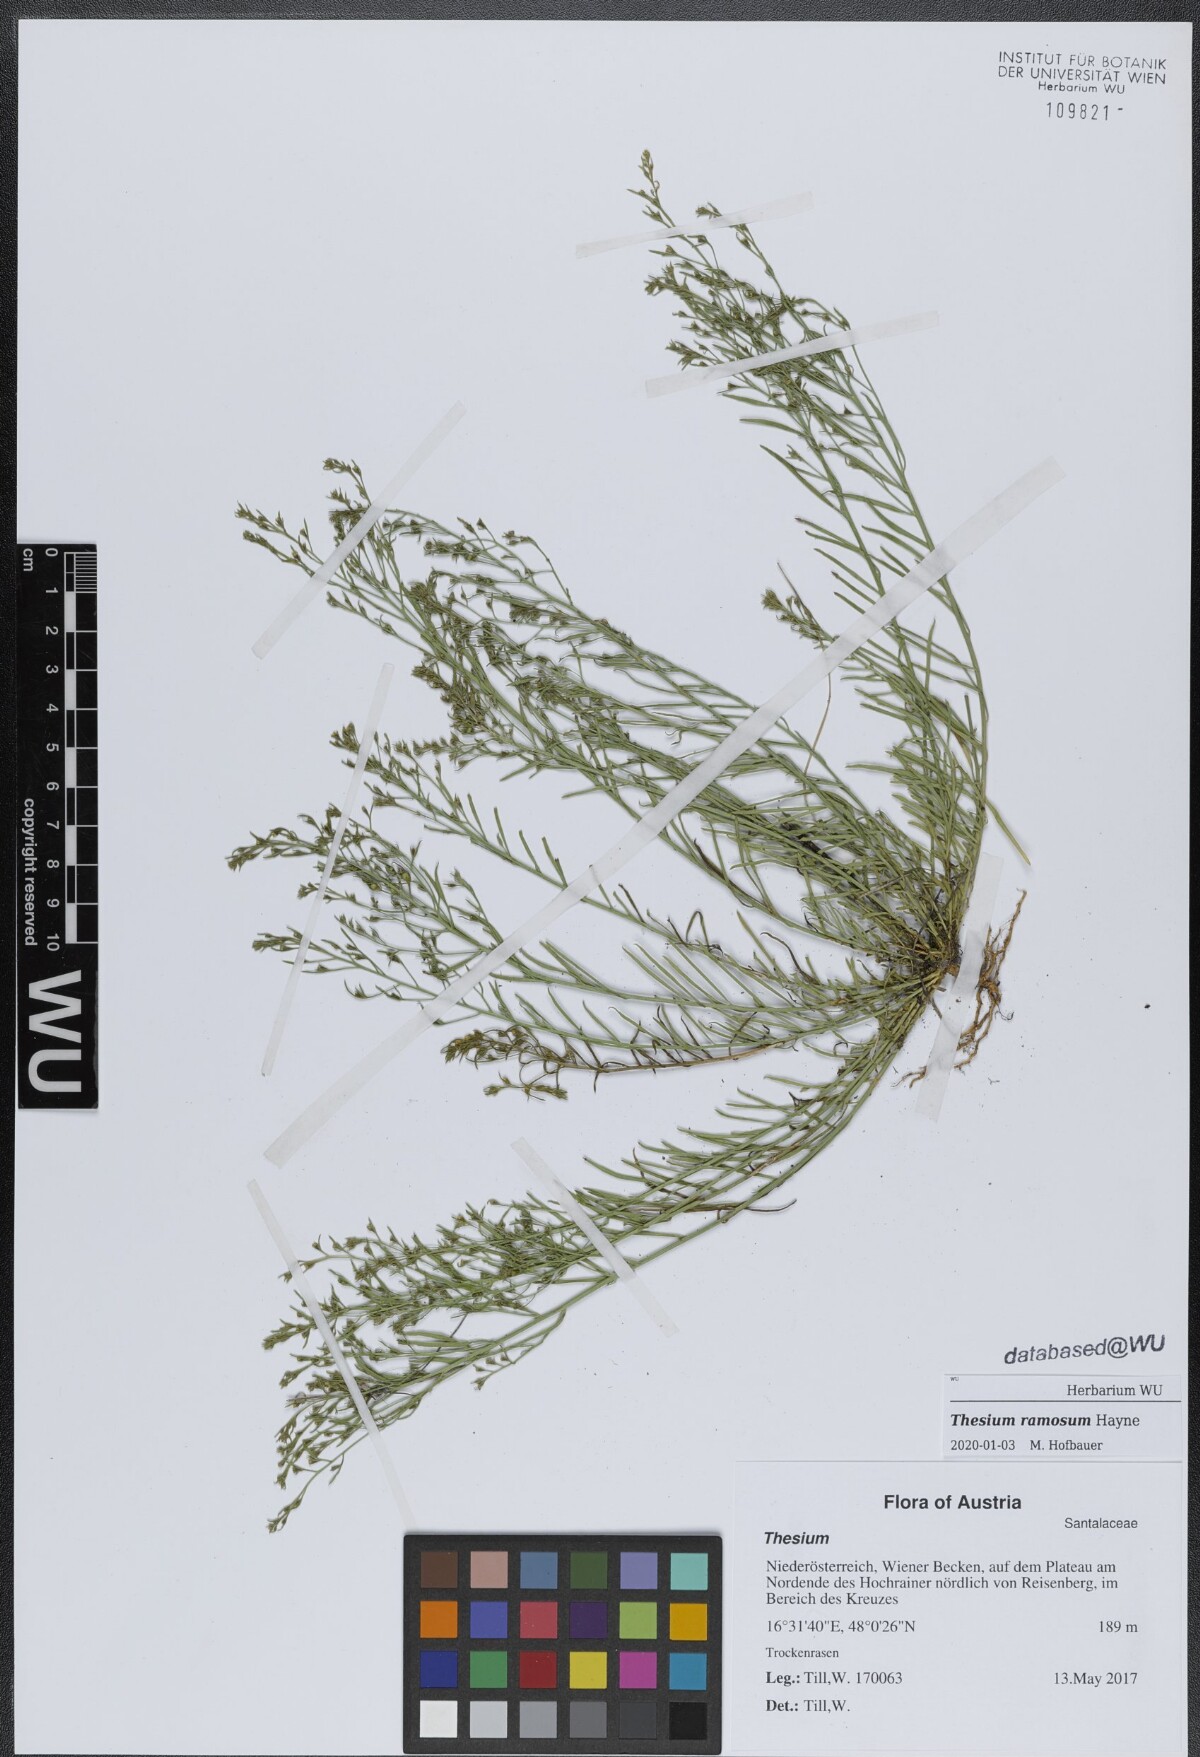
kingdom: Plantae
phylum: Tracheophyta
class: Magnoliopsida
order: Santalales
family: Thesiaceae
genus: Thesium
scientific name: Thesium ramosum
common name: Field thesium
